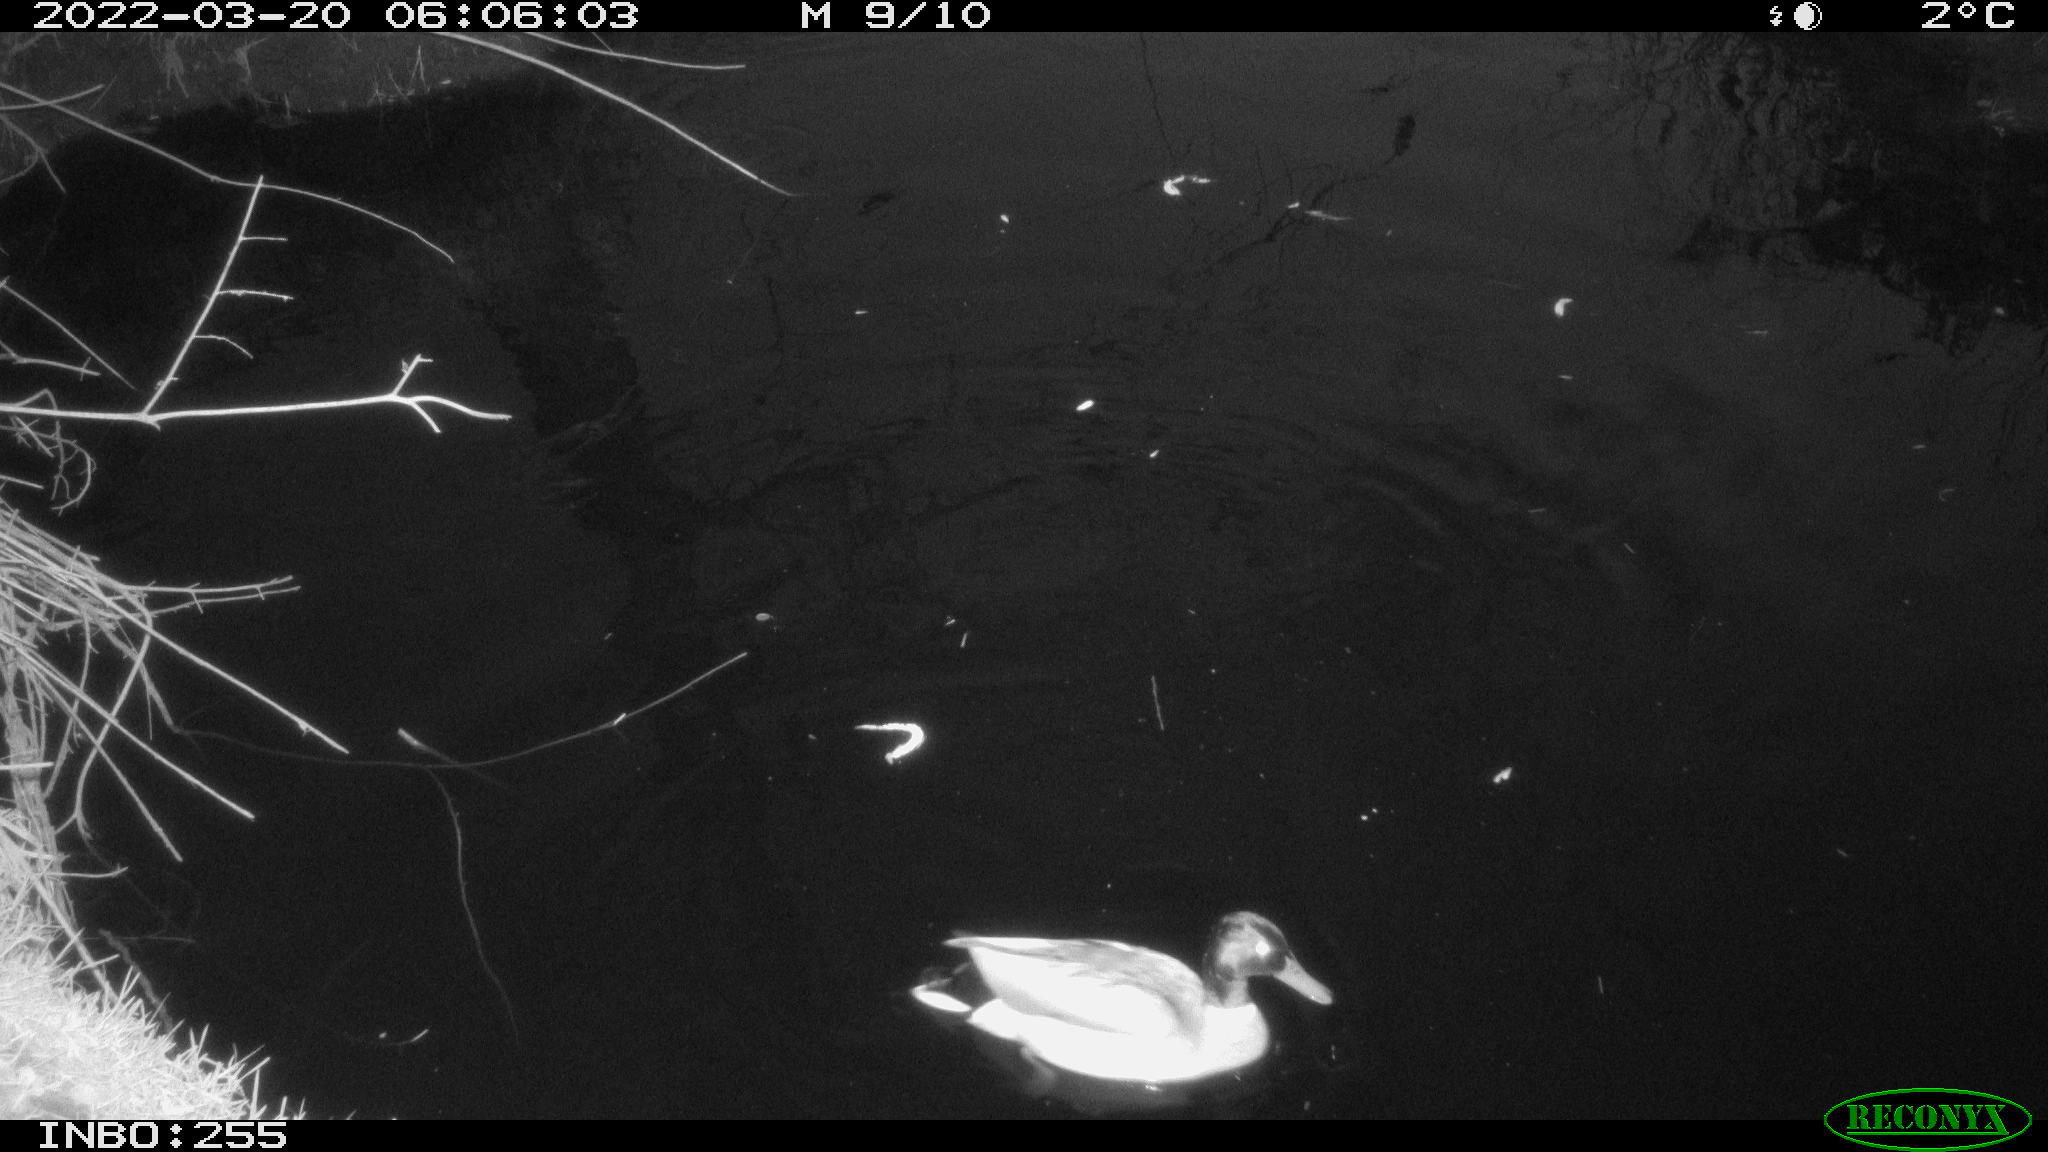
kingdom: Animalia
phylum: Chordata
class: Aves
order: Gruiformes
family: Rallidae
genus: Gallinula
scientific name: Gallinula chloropus
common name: Common moorhen
